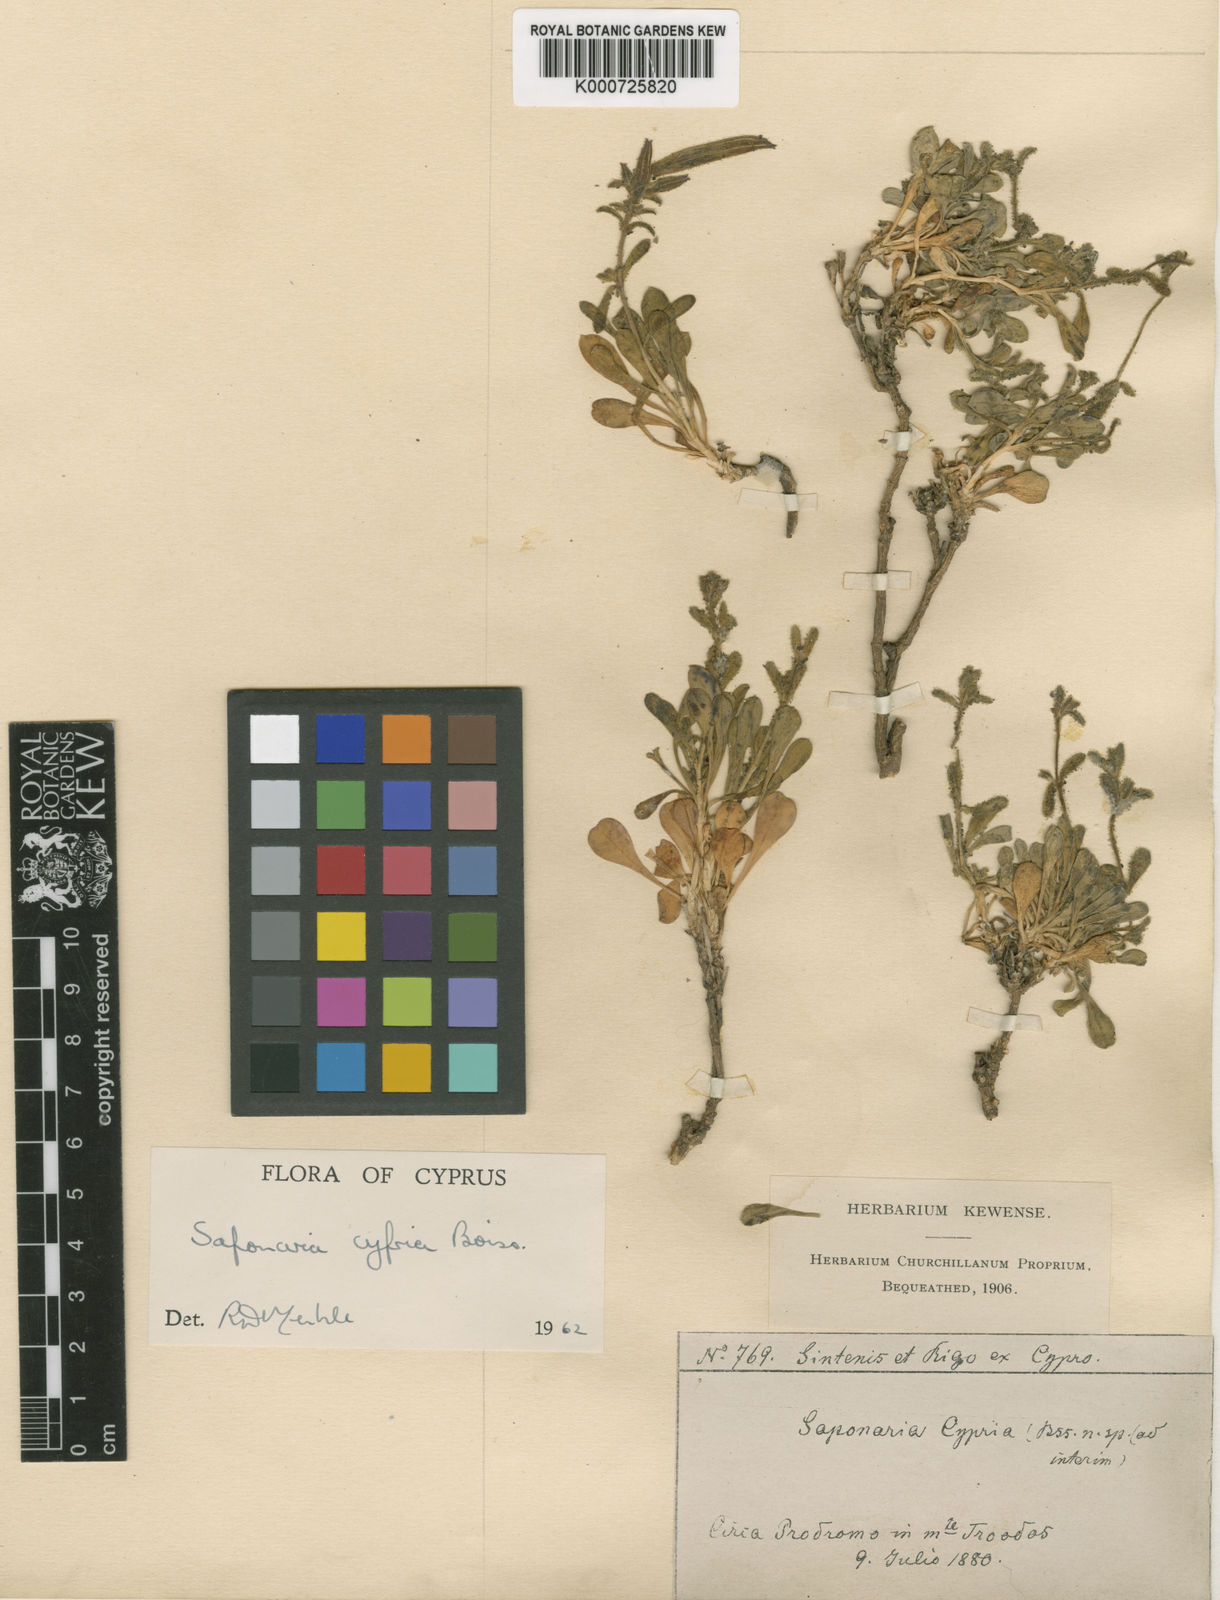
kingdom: Plantae
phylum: Tracheophyta
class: Magnoliopsida
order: Caryophyllales
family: Caryophyllaceae
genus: Saponaria
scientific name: Saponaria cypria
